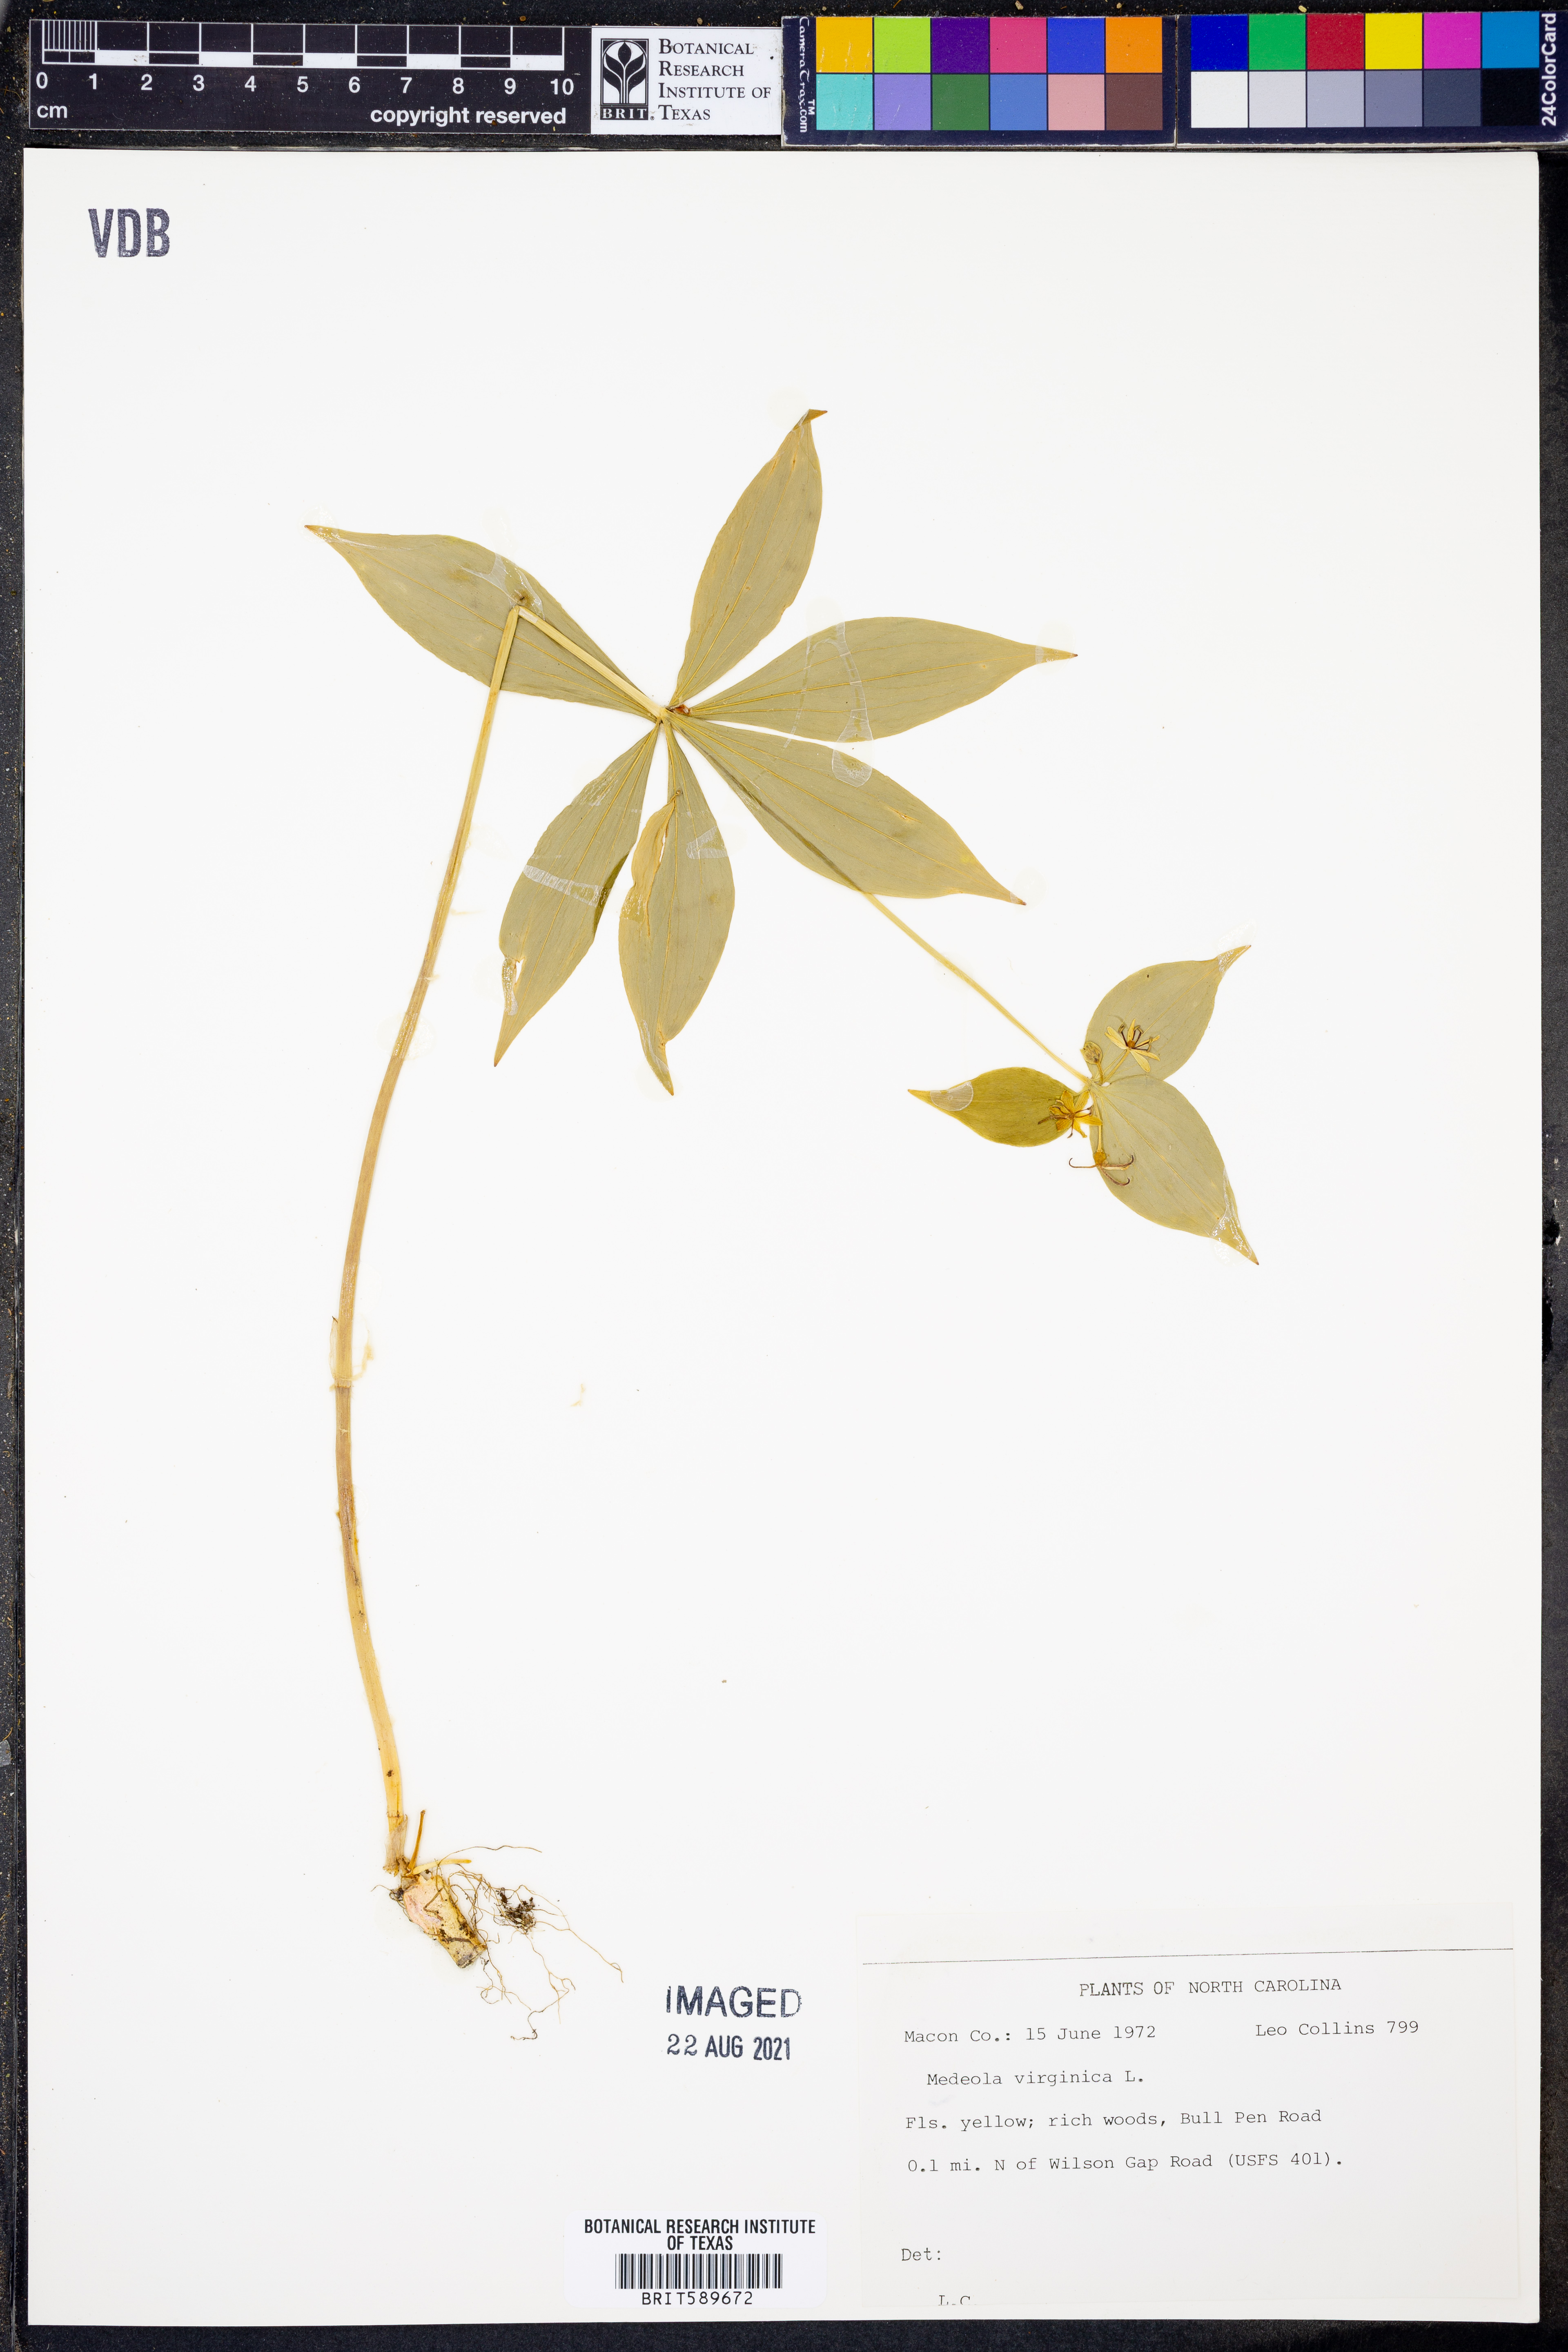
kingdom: Plantae
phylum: Tracheophyta
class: Liliopsida
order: Liliales
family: Liliaceae
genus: Medeola
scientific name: Medeola virginiana
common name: Indian cucumber-root
